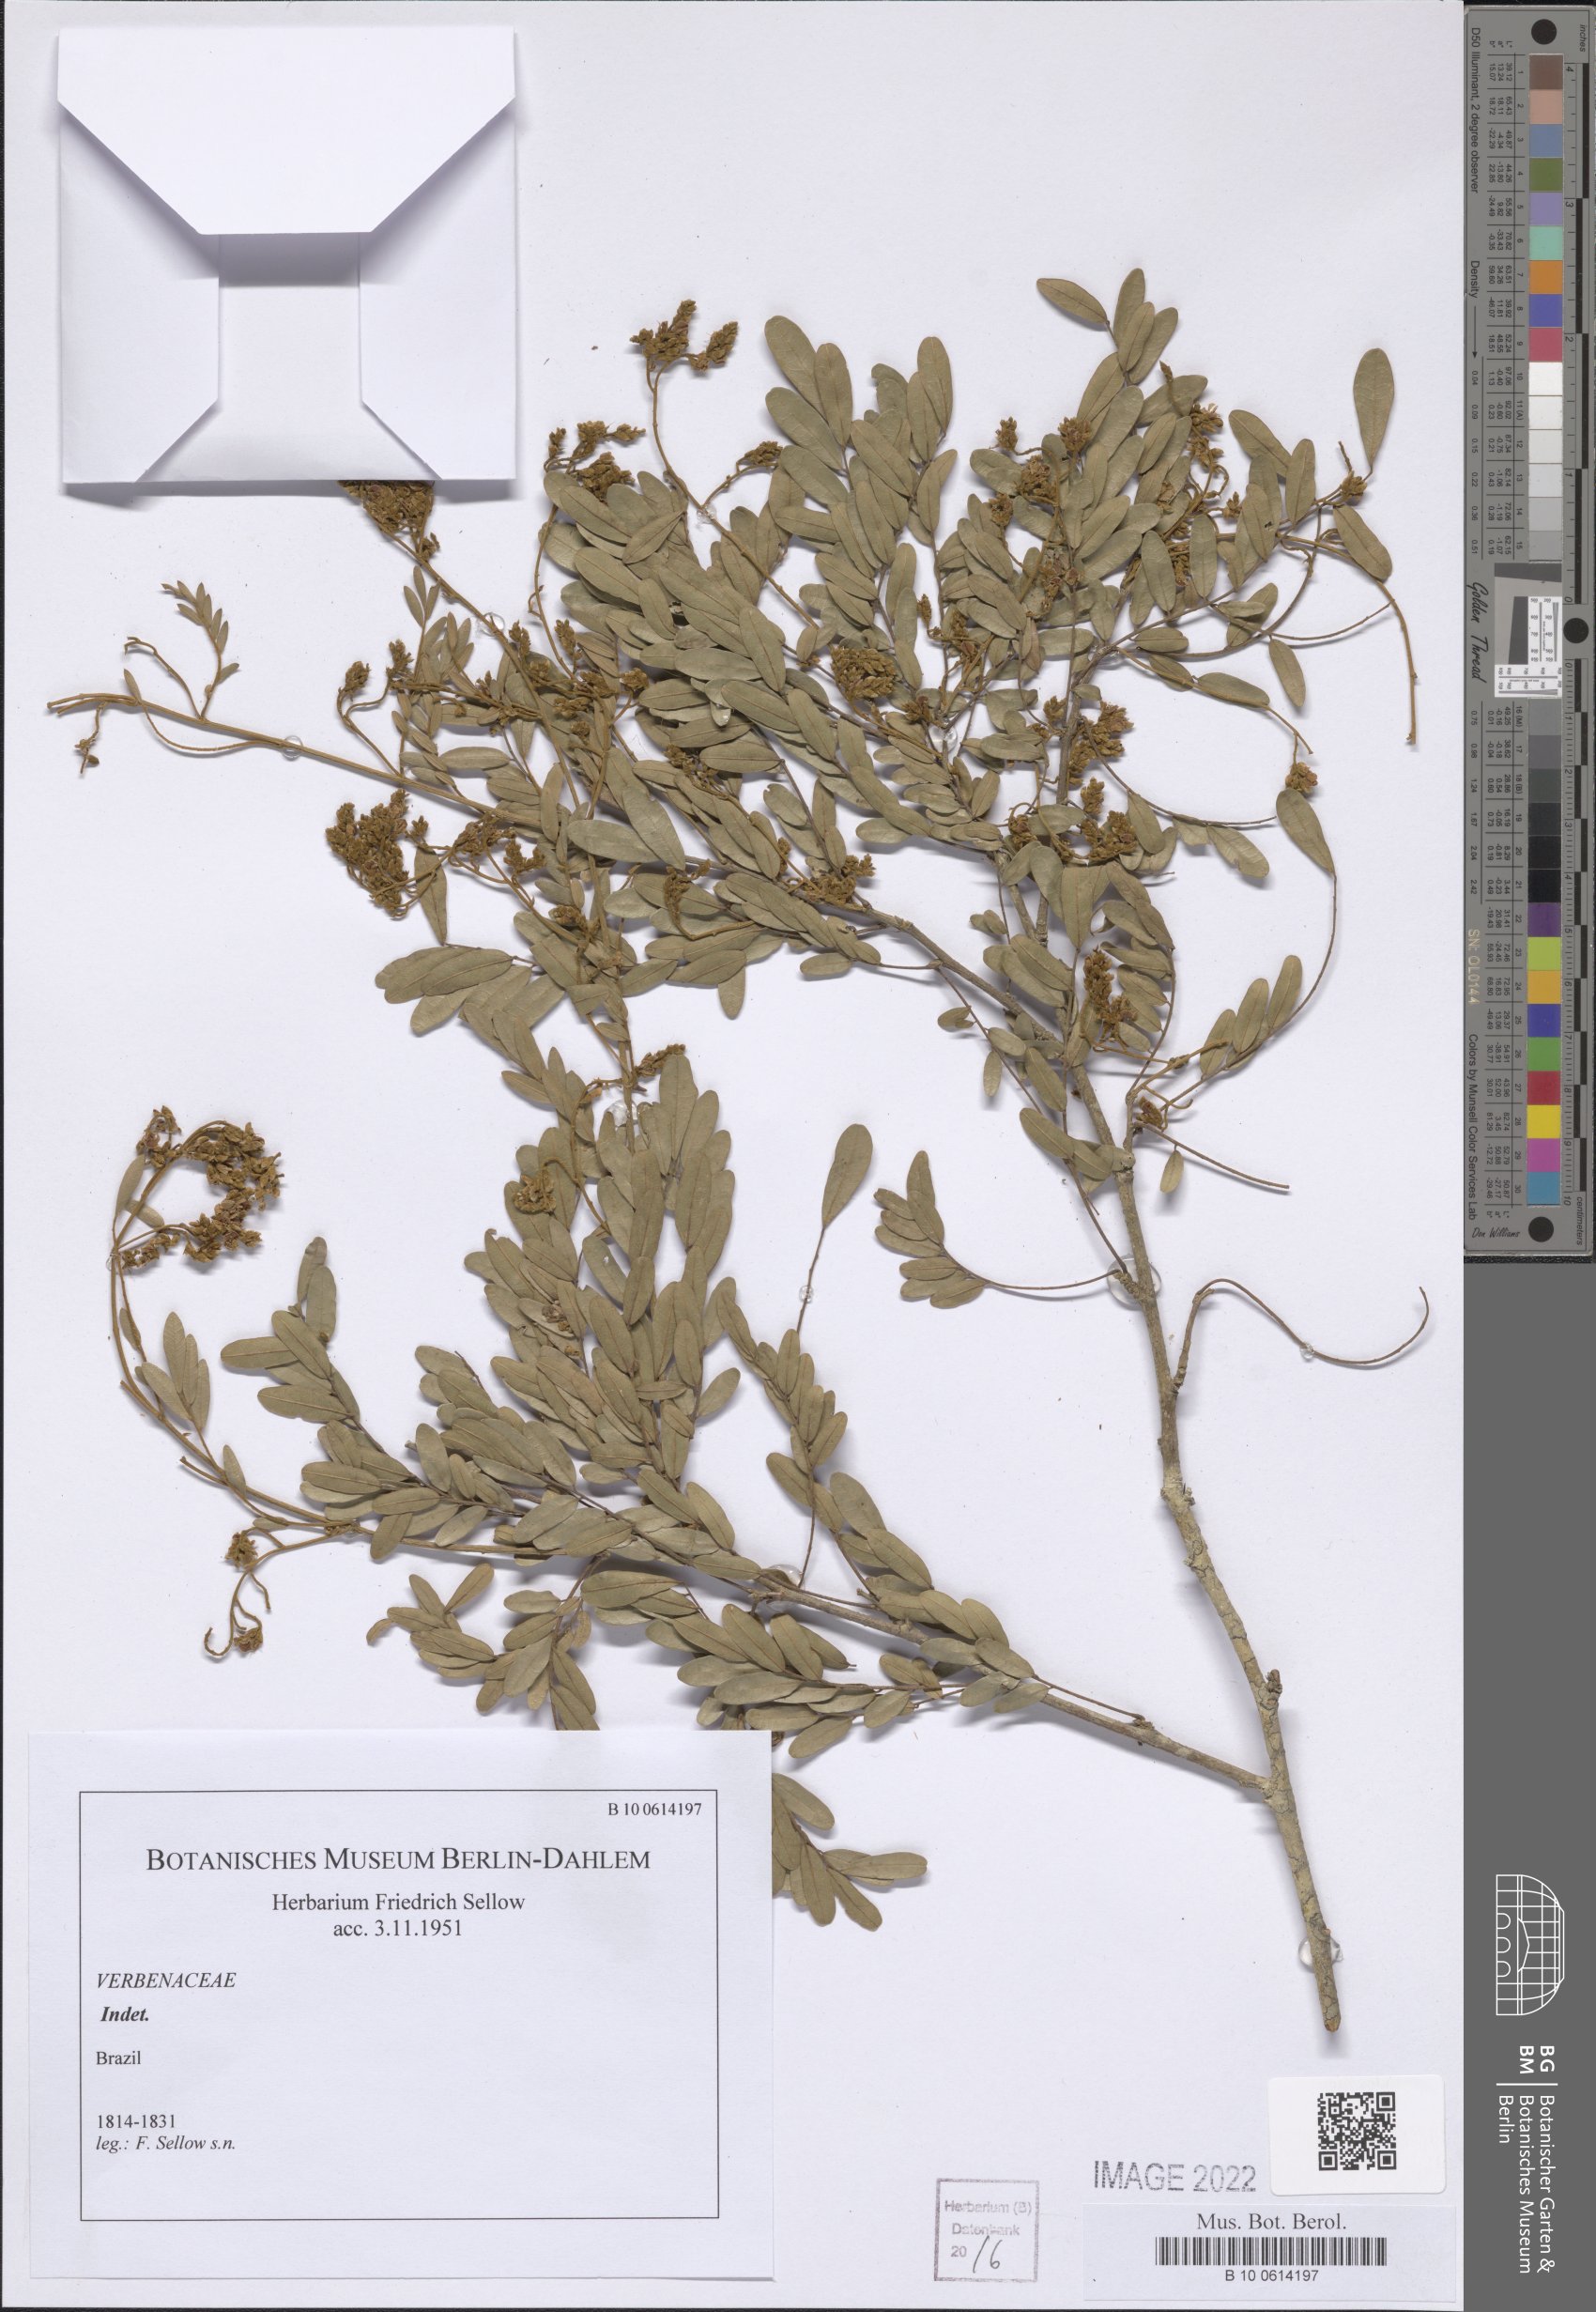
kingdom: Plantae
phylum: Tracheophyta
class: Magnoliopsida
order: Lamiales
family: Verbenaceae
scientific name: Verbenaceae
